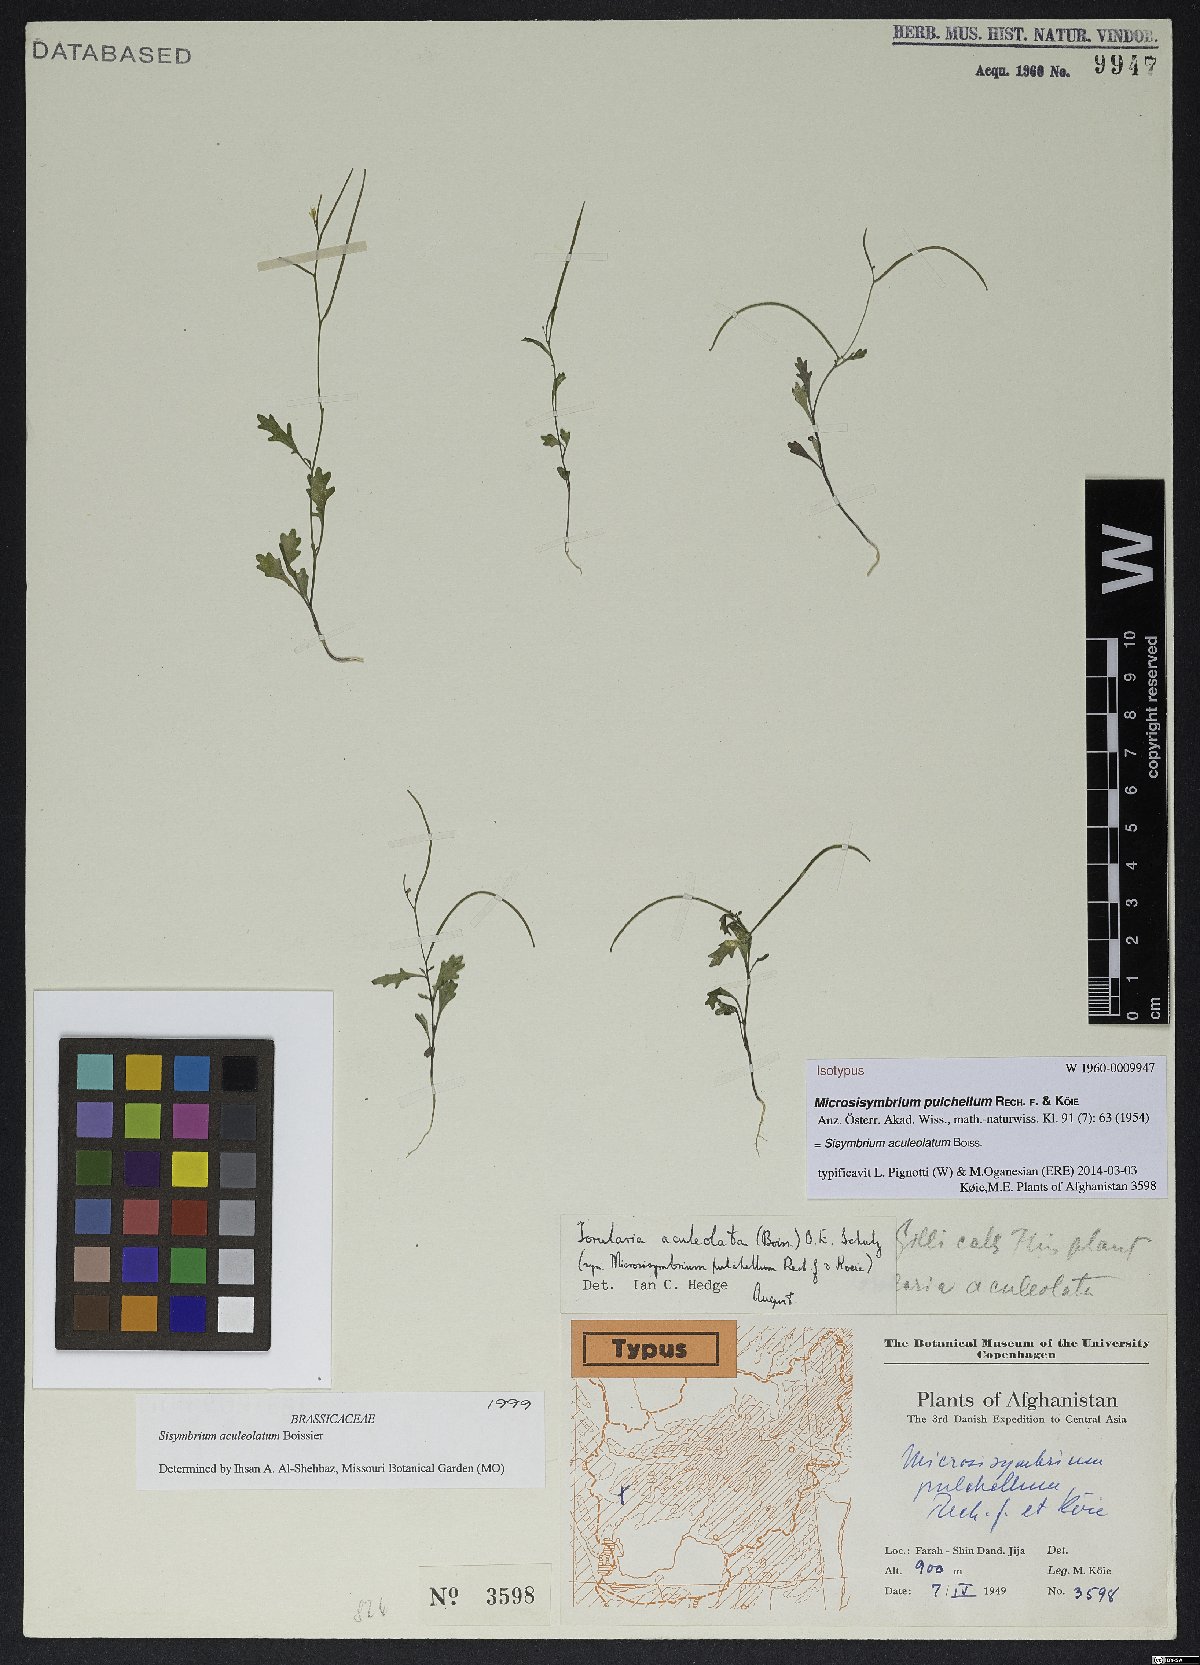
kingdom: Plantae
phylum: Tracheophyta
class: Magnoliopsida
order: Brassicales
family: Brassicaceae
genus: Sisymbrium
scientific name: Sisymbrium aculeolatum
